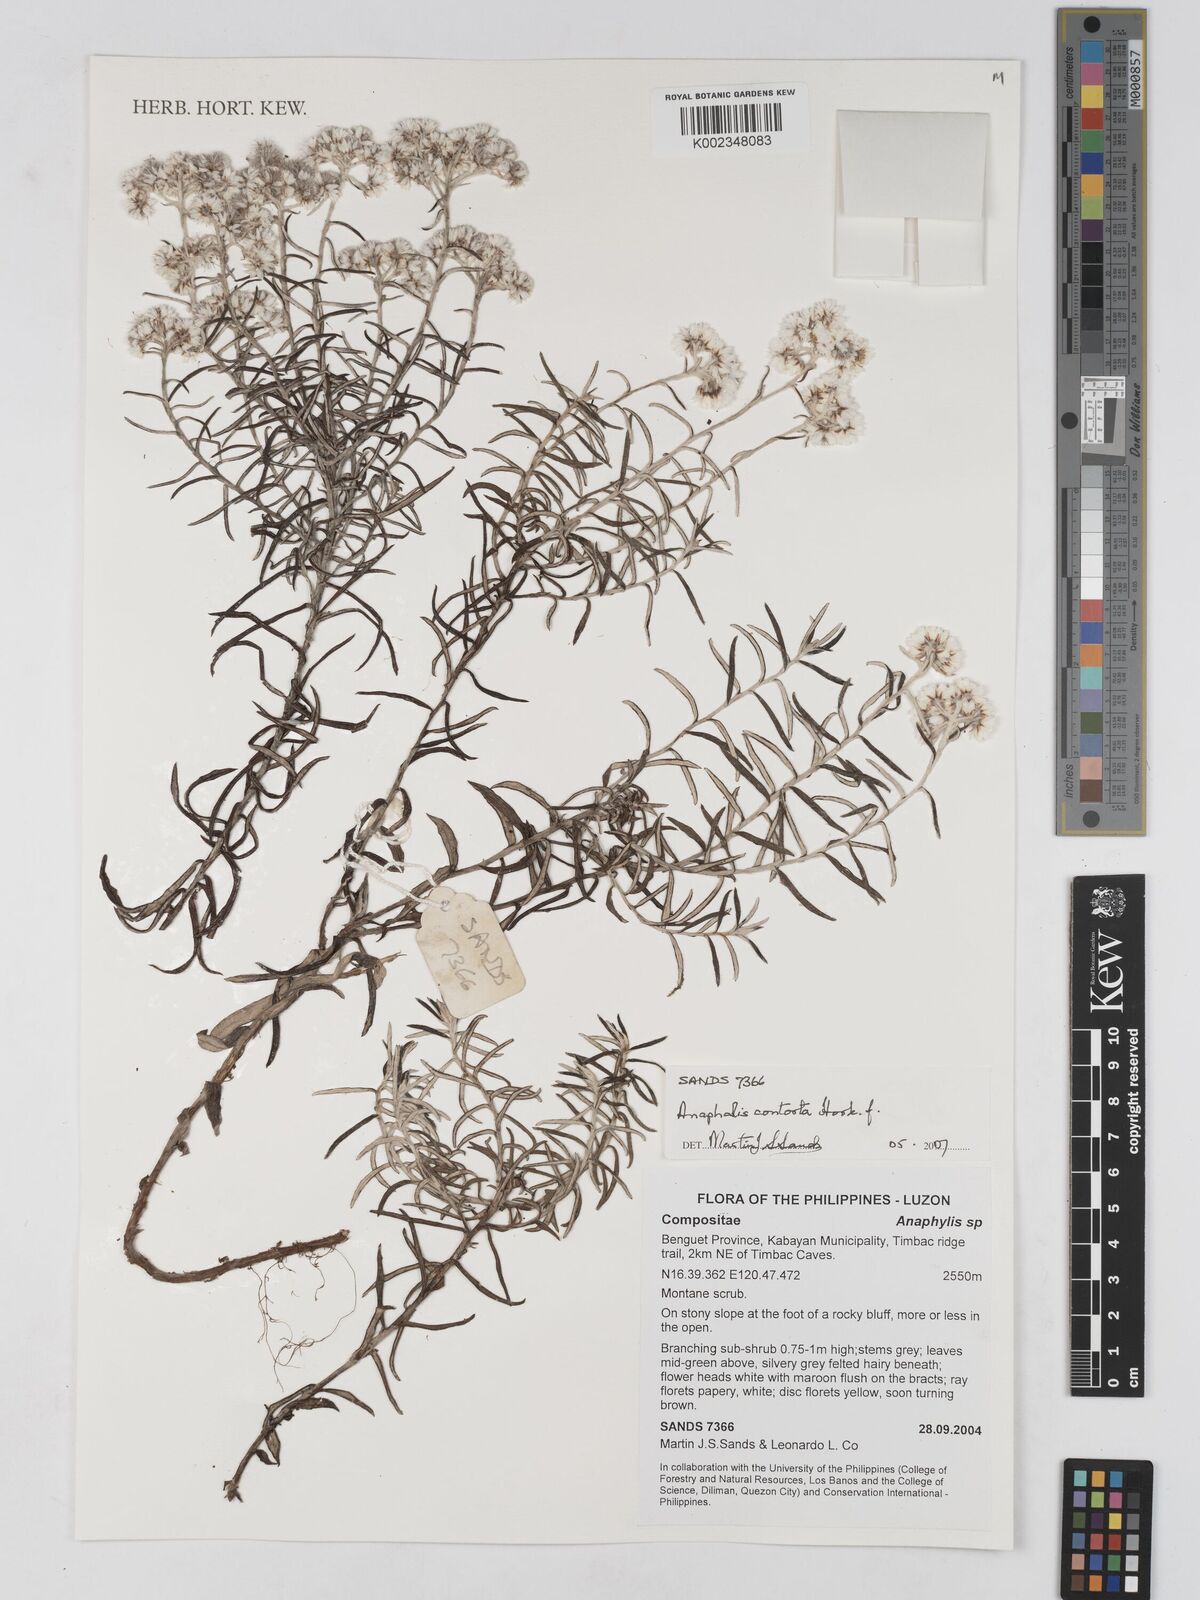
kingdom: Plantae
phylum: Tracheophyta
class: Magnoliopsida
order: Asterales
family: Asteraceae
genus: Anaphalis
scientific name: Anaphalis contorta
